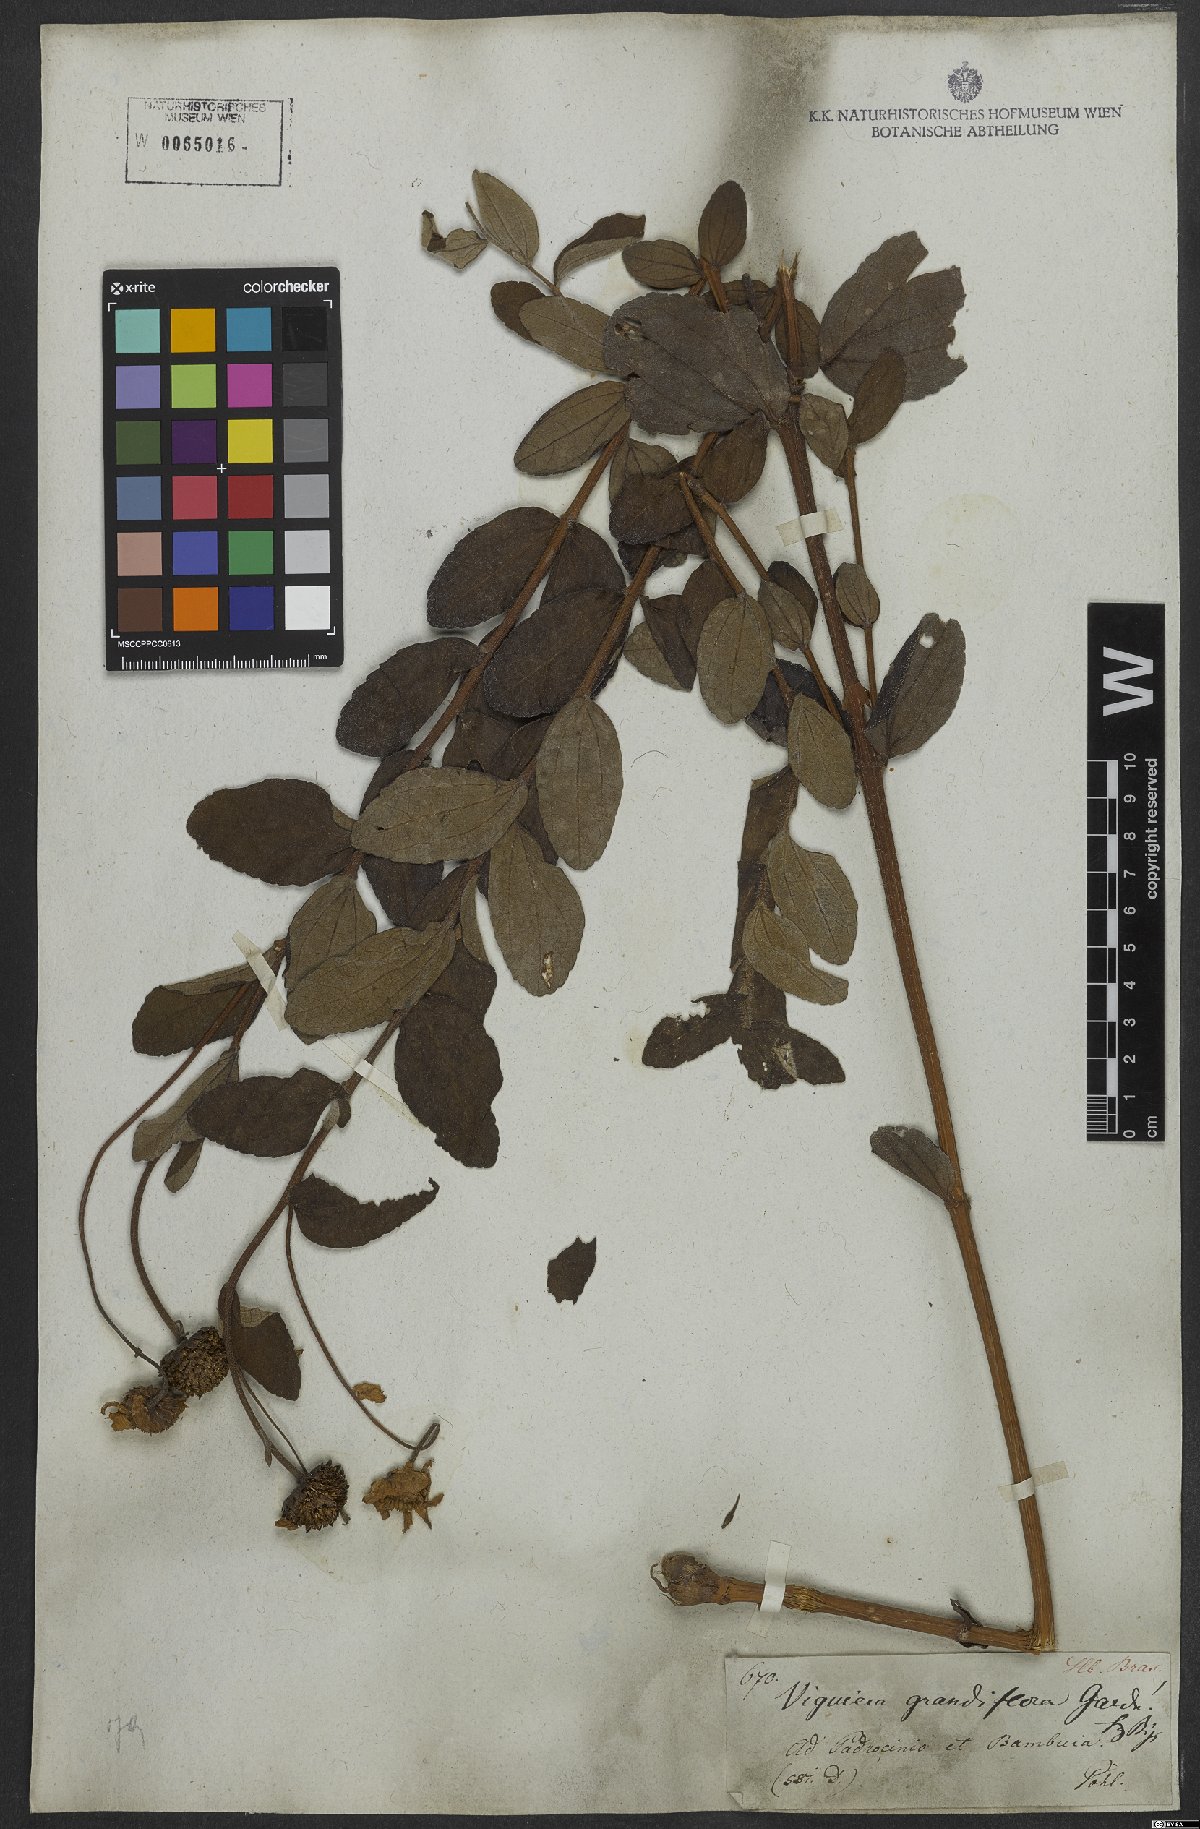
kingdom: Plantae
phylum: Tracheophyta
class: Magnoliopsida
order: Asterales
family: Asteraceae
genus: Aldama
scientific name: Aldama discolor
